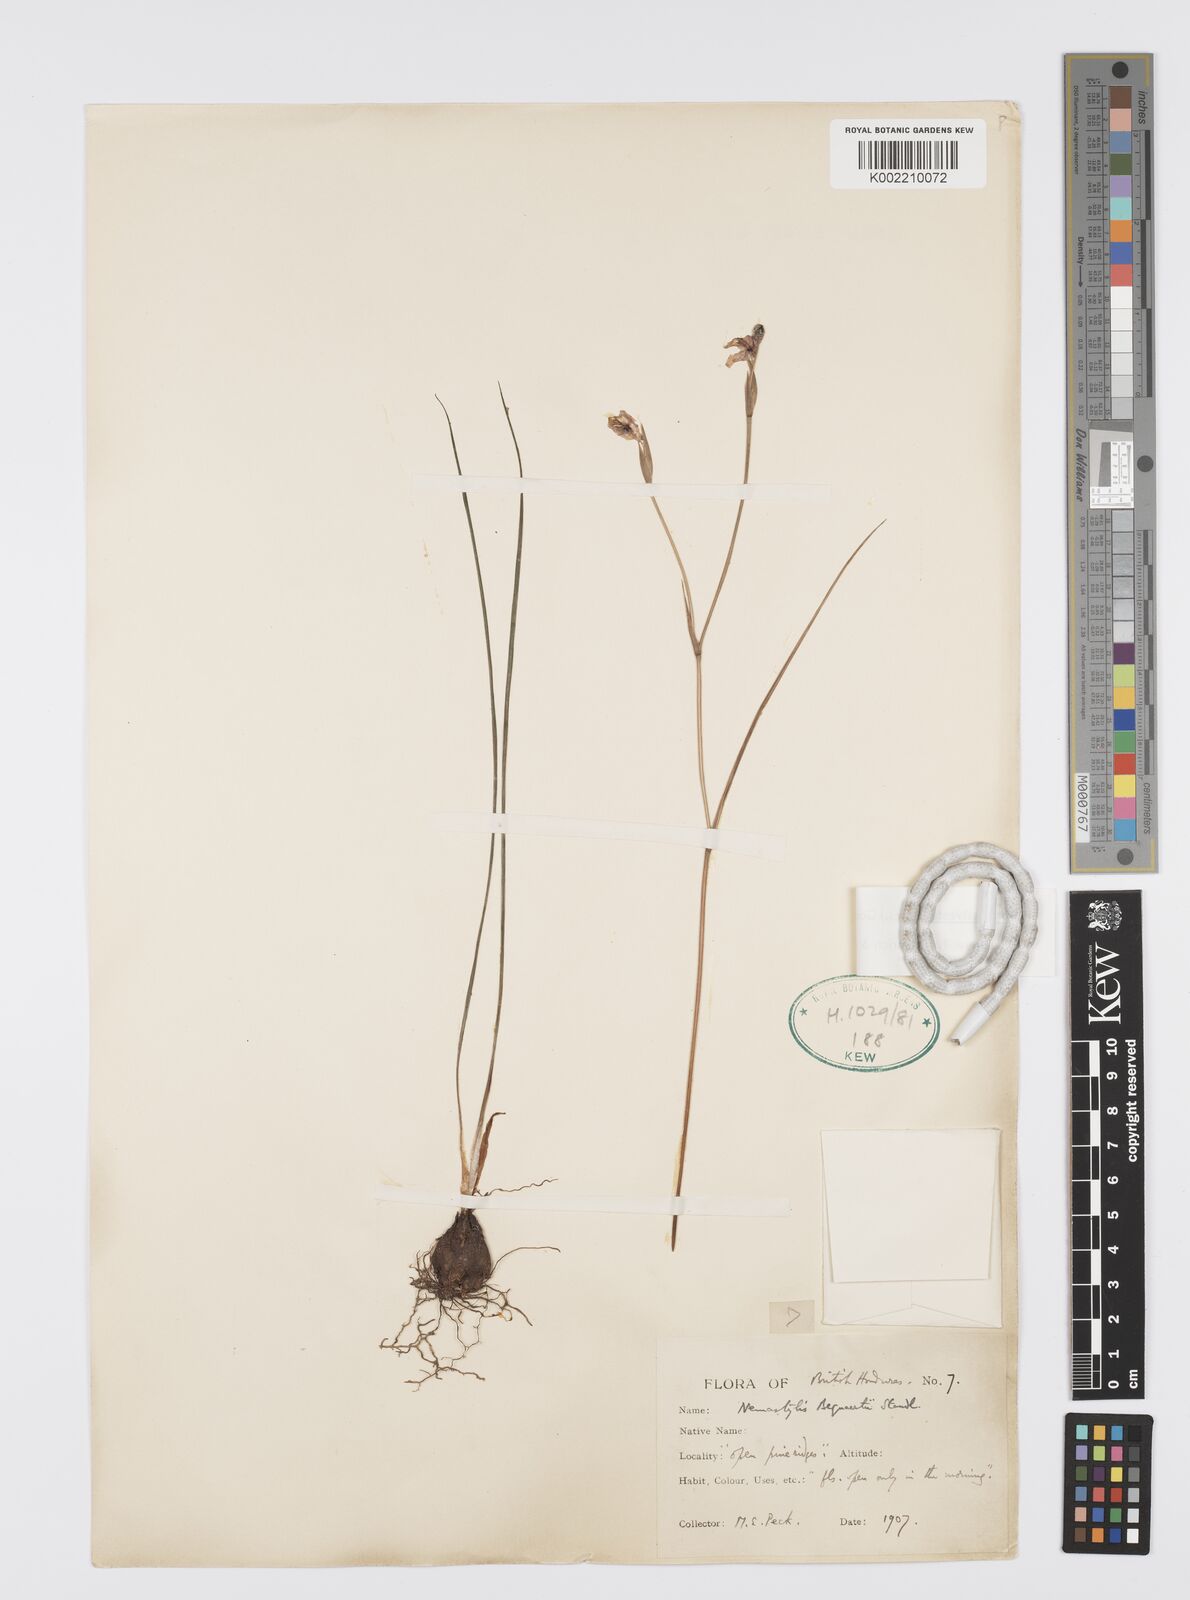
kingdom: Plantae
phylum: Tracheophyta
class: Liliopsida
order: Asparagales
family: Iridaceae
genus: Alophia
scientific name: Alophia silvestris
